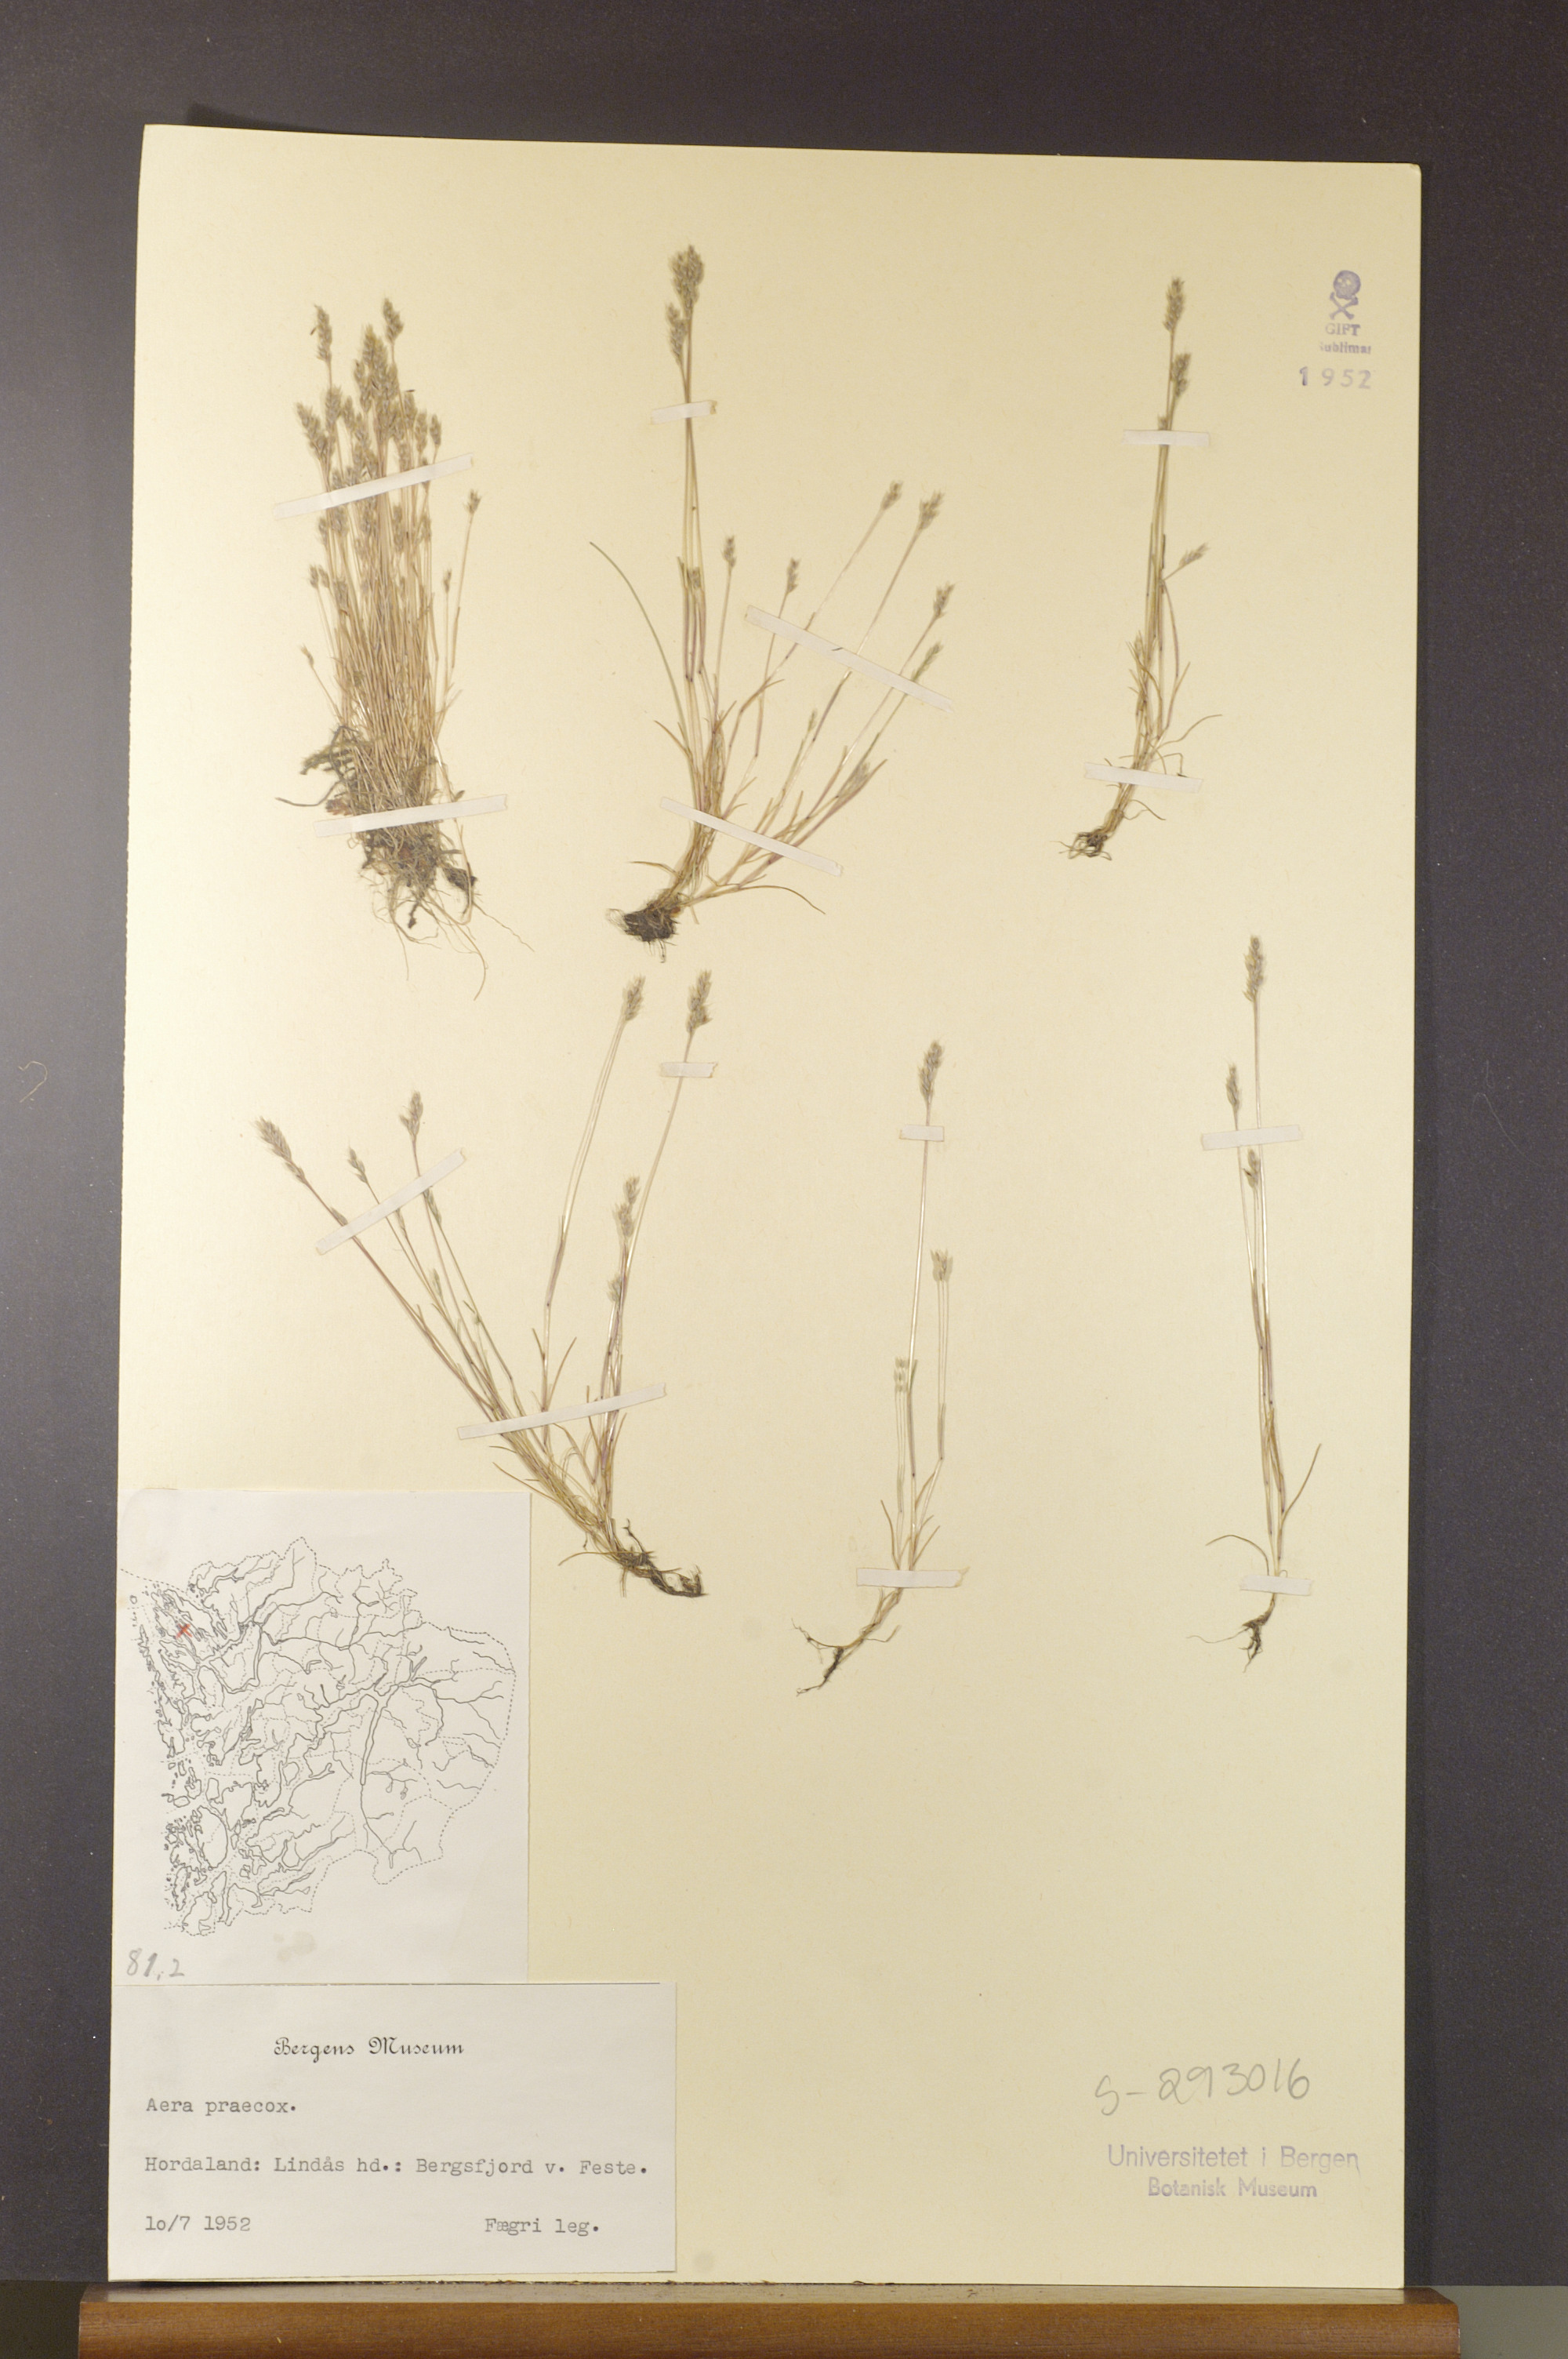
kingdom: Plantae
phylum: Tracheophyta
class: Liliopsida
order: Poales
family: Poaceae
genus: Aira
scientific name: Aira praecox
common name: Early hair-grass
